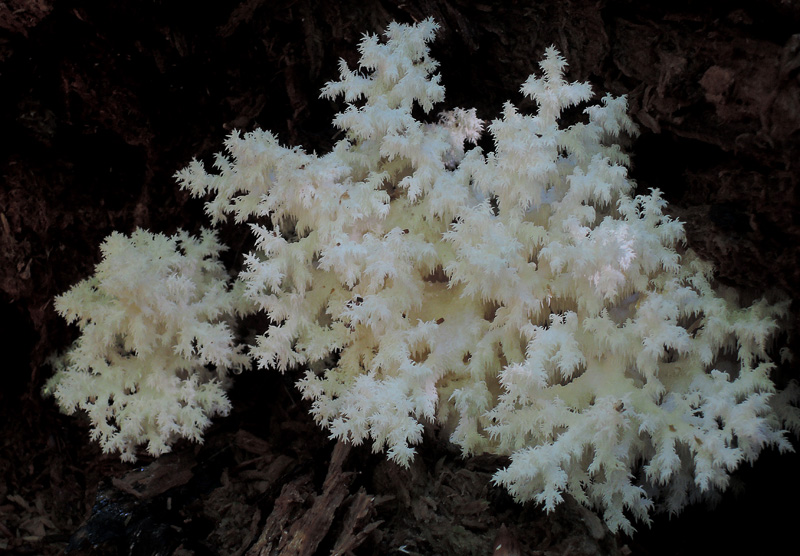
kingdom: Fungi
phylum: Basidiomycota
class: Agaricomycetes
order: Russulales
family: Hericiaceae
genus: Hericium
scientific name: Hericium coralloides
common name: koralpigsvamp
